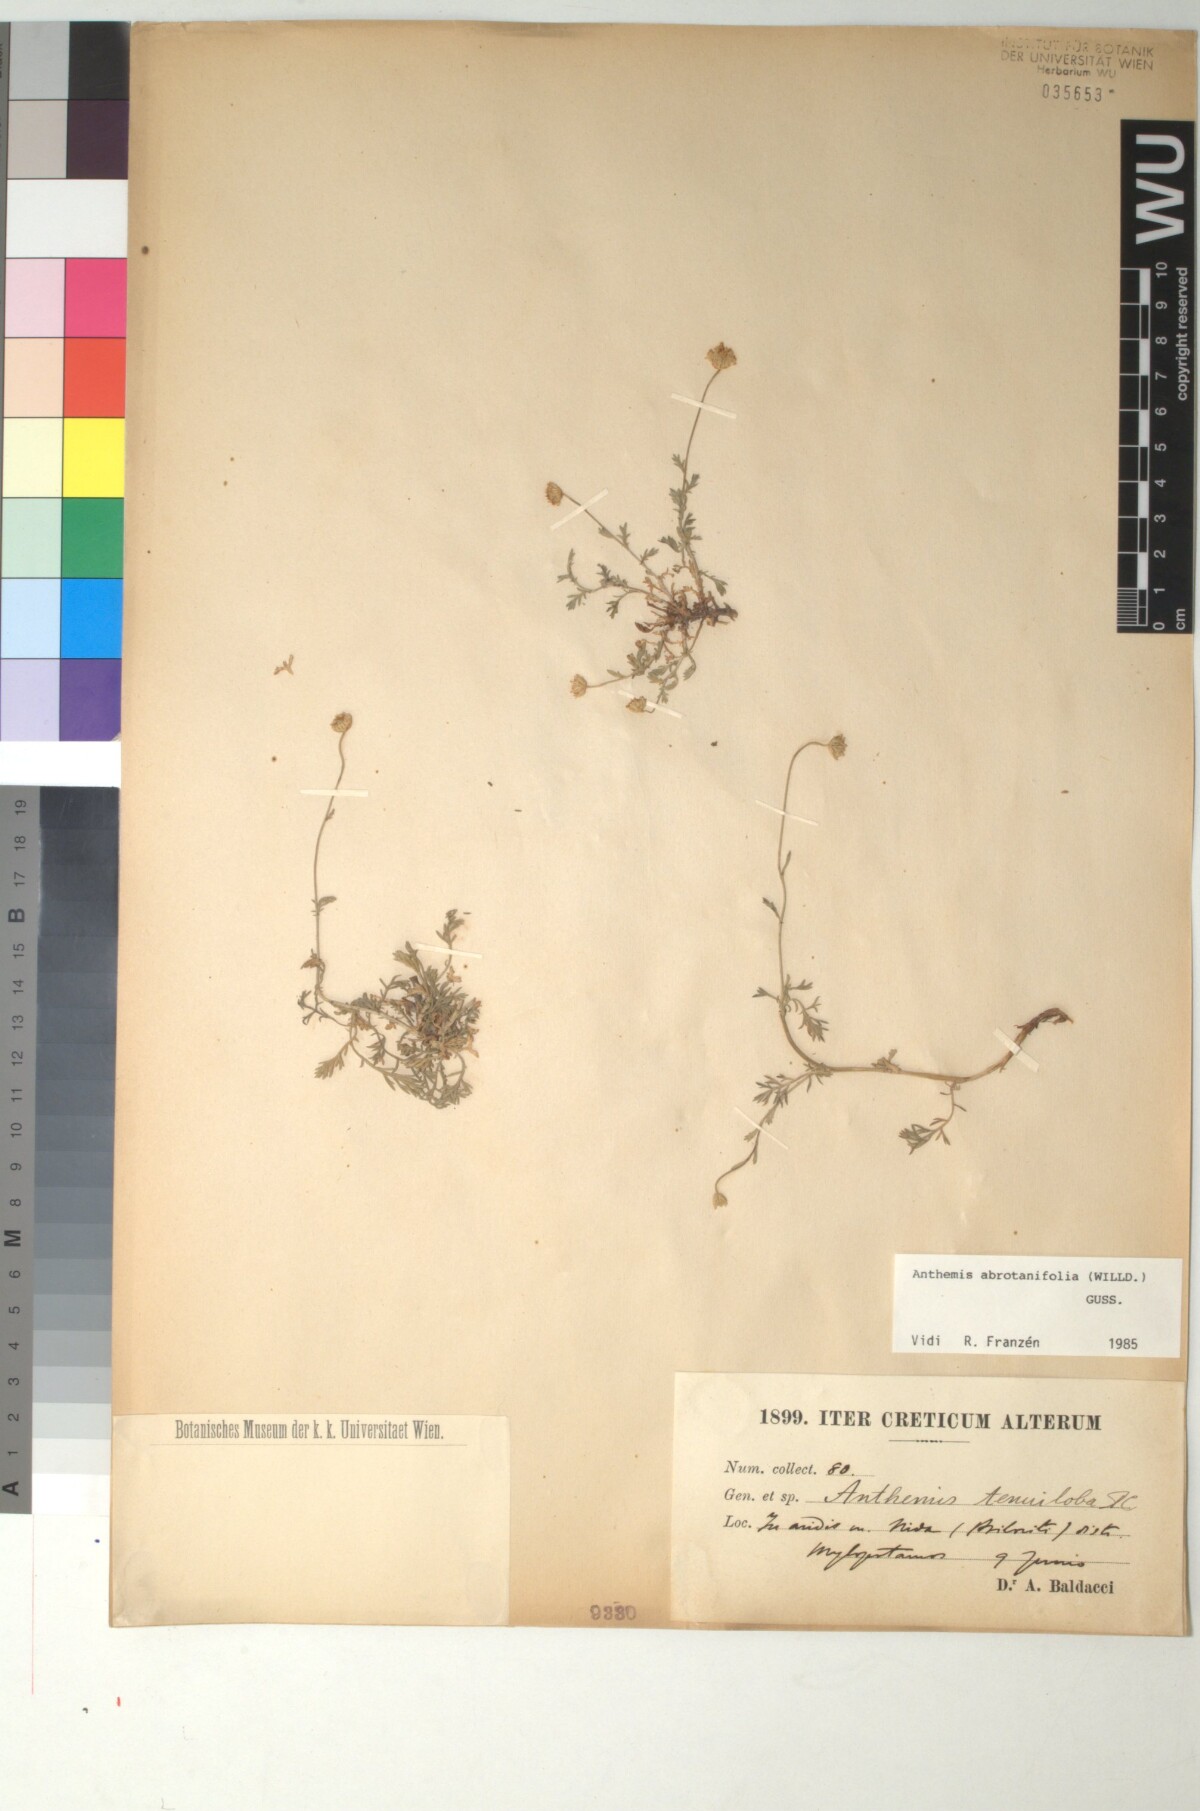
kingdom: Plantae
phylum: Tracheophyta
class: Magnoliopsida
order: Asterales
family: Asteraceae
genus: Anthemis
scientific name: Anthemis abrotanifolia
